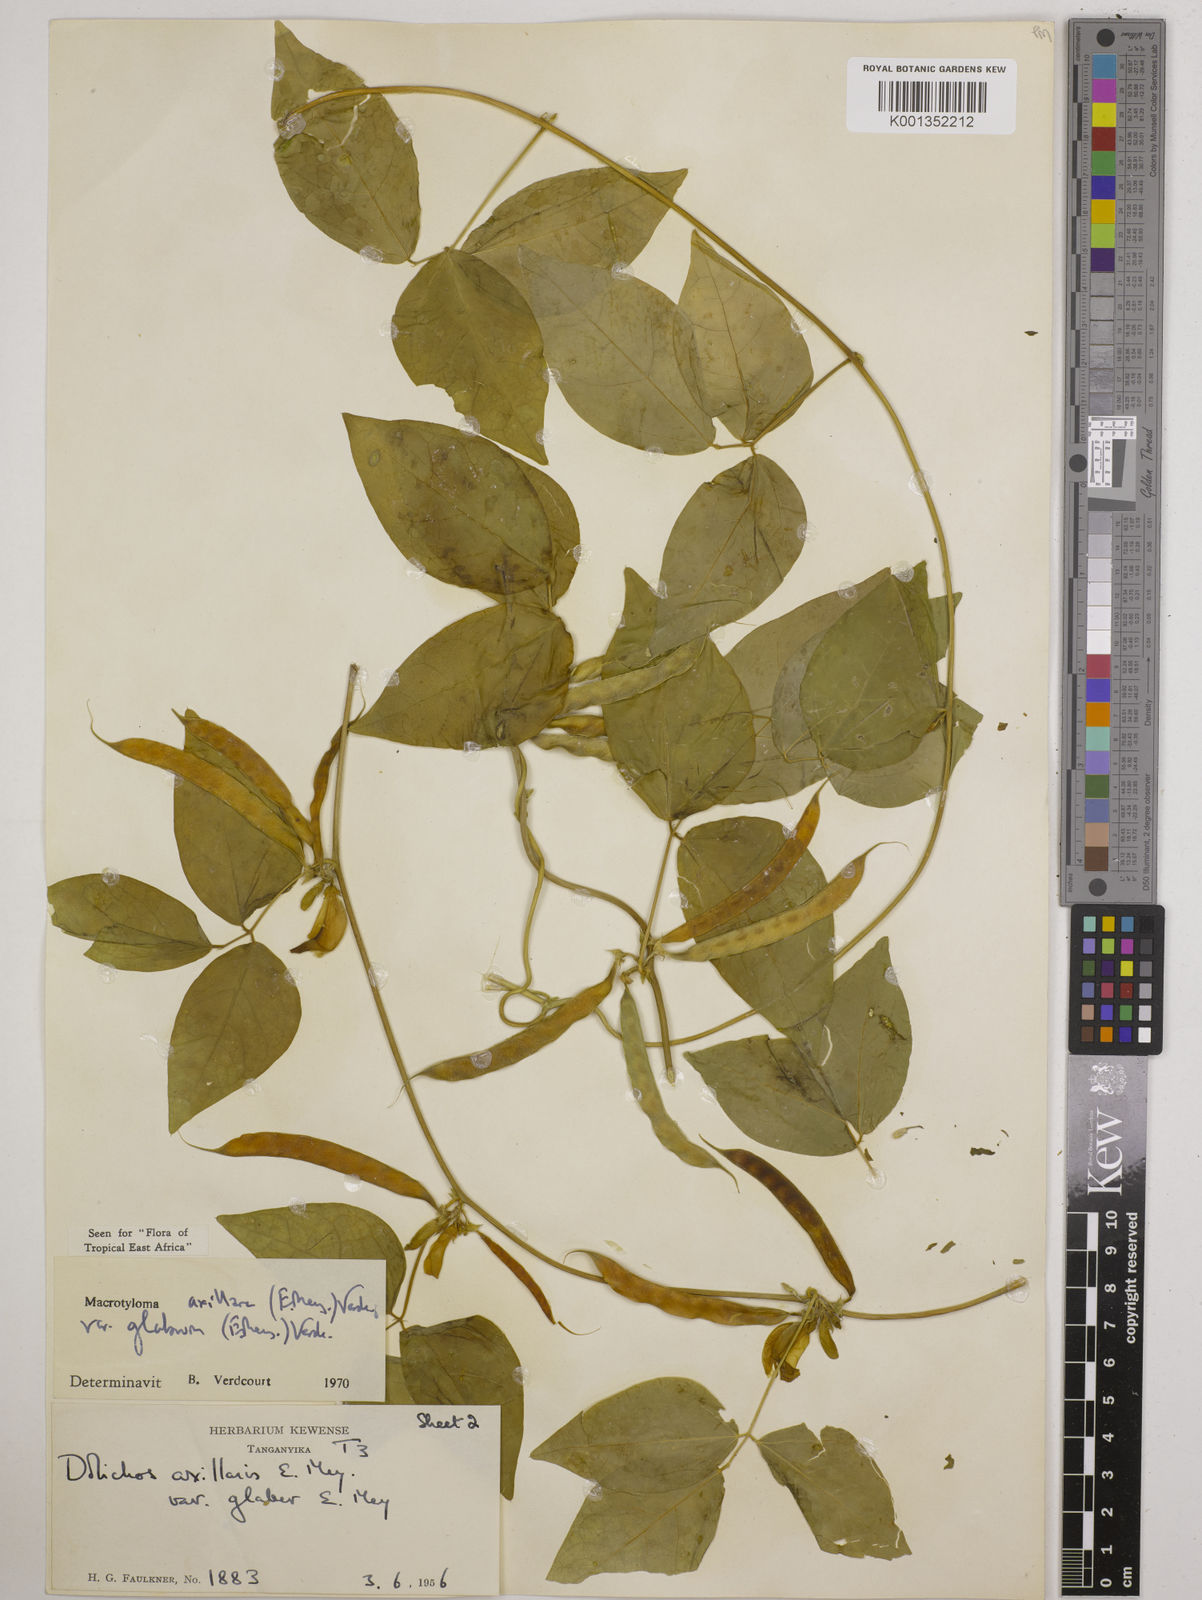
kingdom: Plantae
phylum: Tracheophyta
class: Magnoliopsida
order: Fabales
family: Fabaceae
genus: Macrotyloma
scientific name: Macrotyloma
